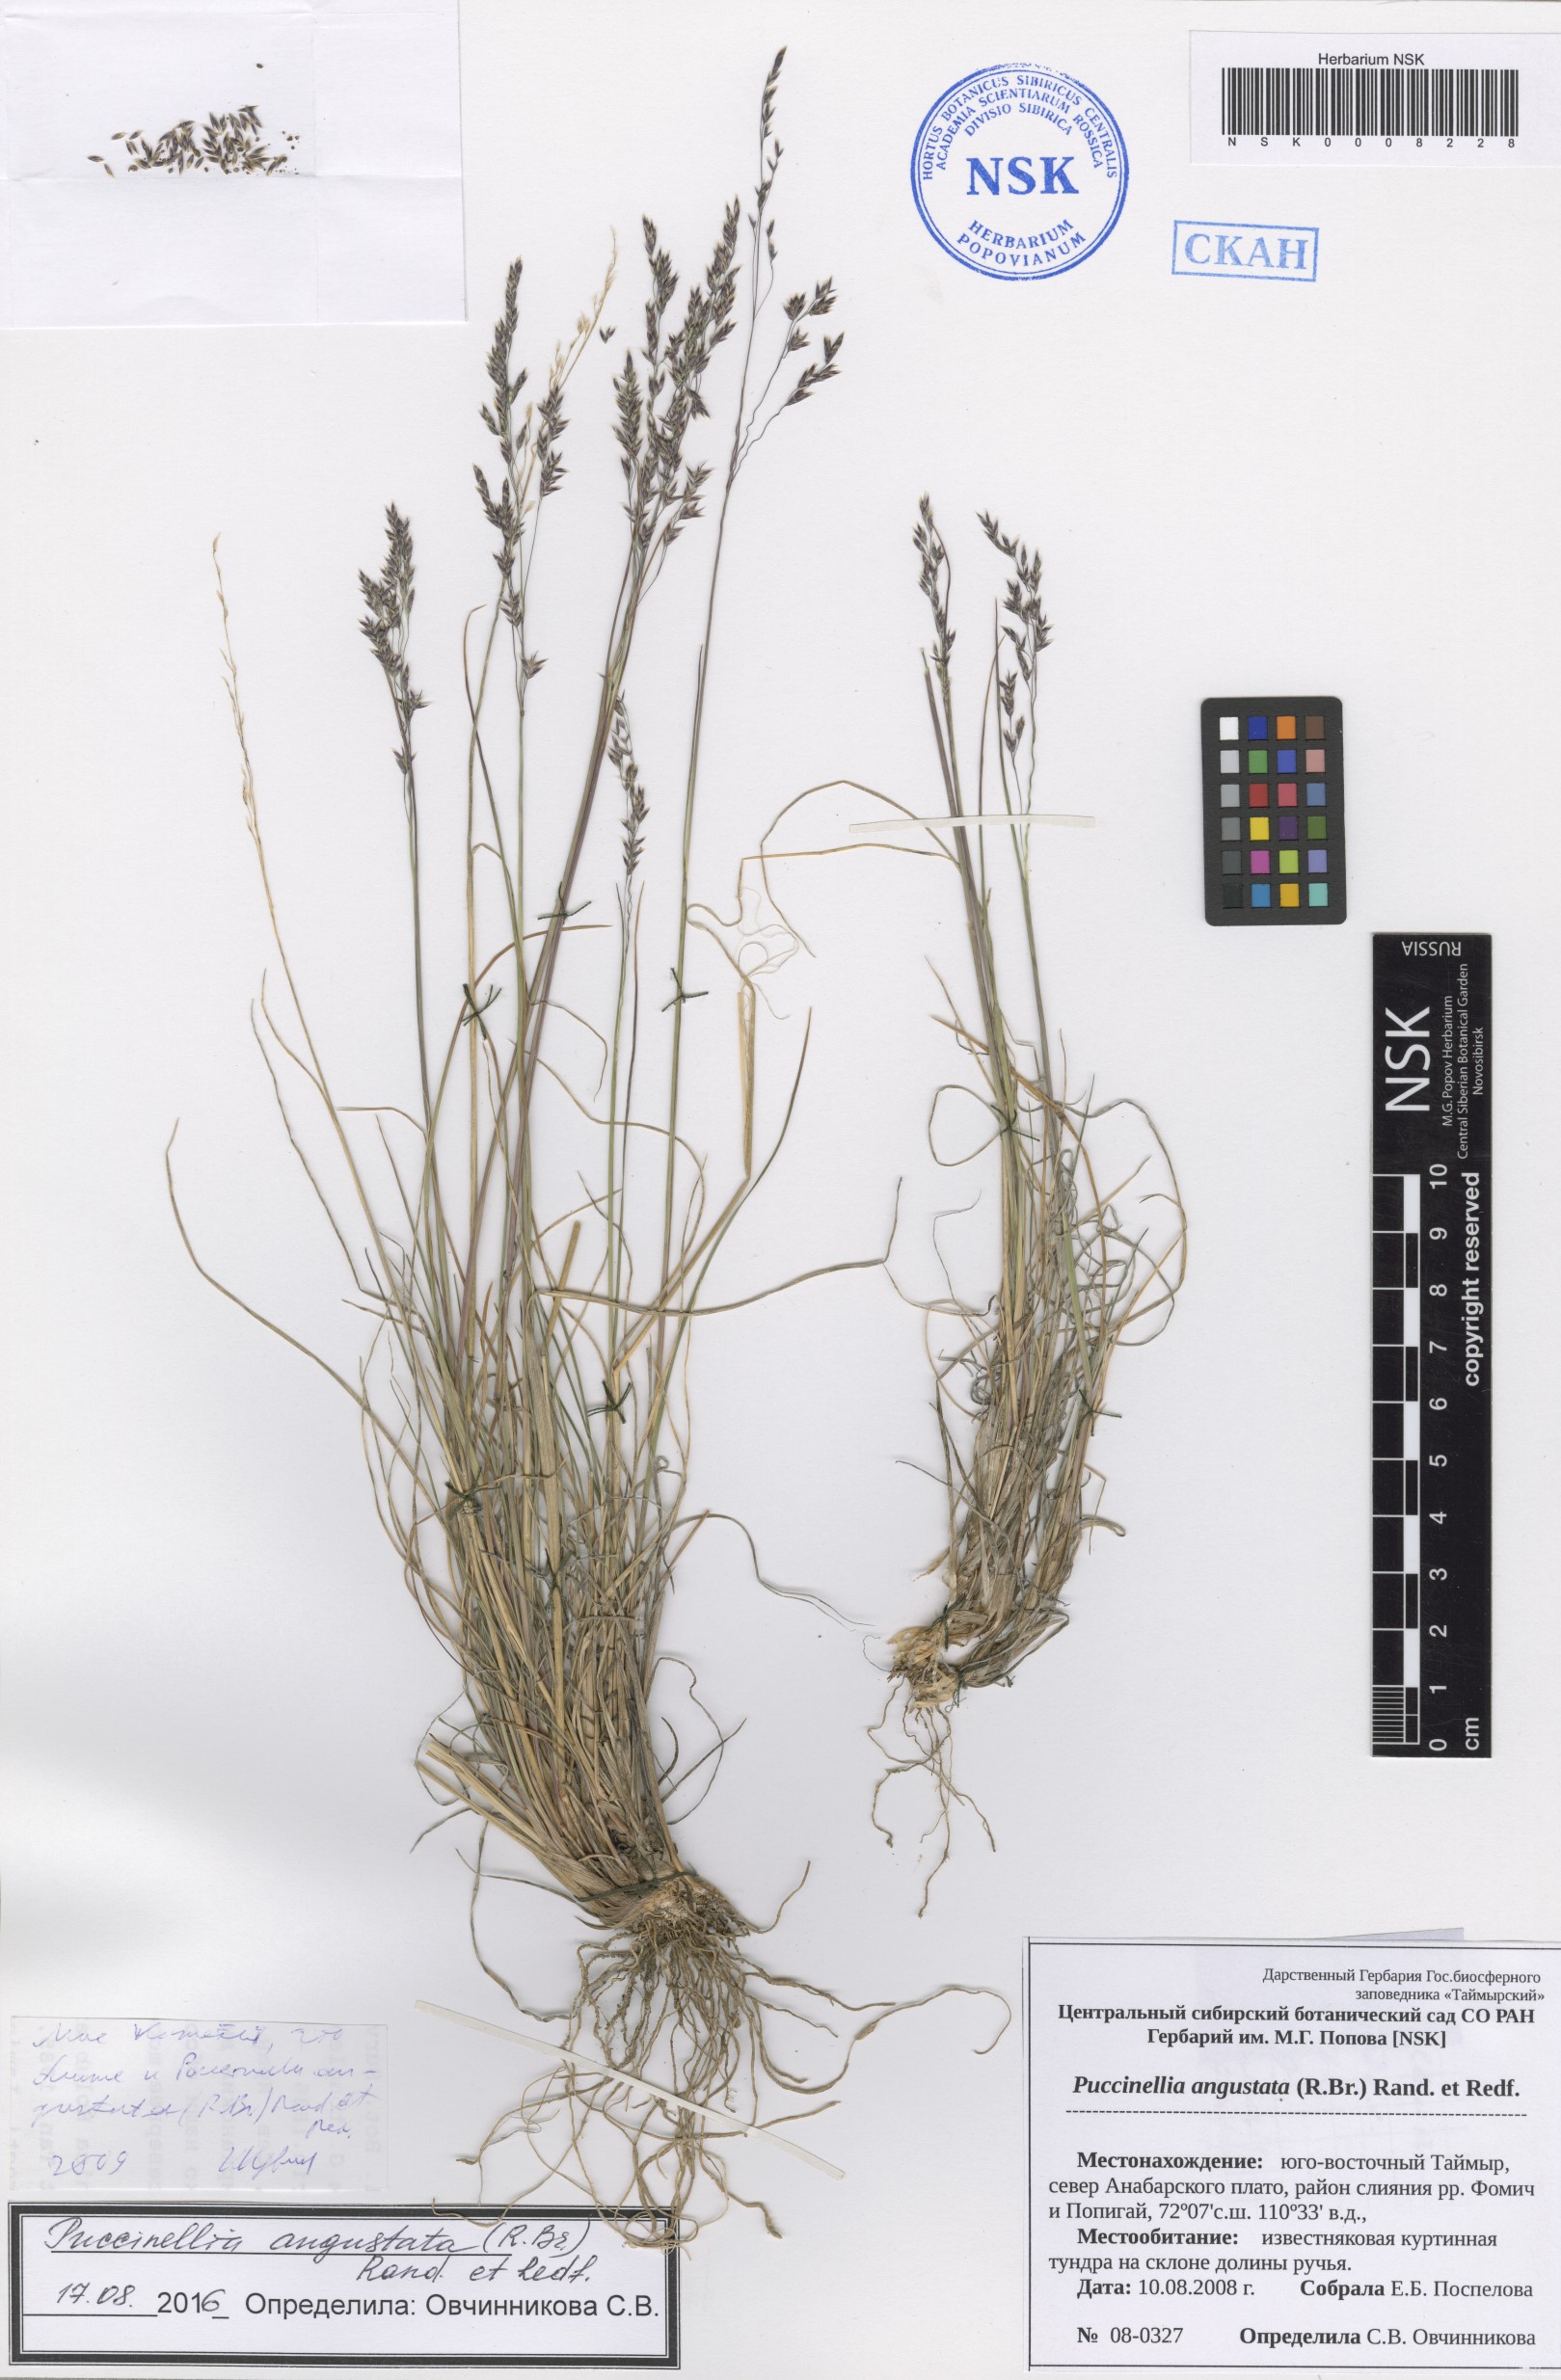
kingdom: Plantae
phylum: Tracheophyta
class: Liliopsida
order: Poales
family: Poaceae
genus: Puccinellia
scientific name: Puccinellia angustata
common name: Narrow alkaligrass
